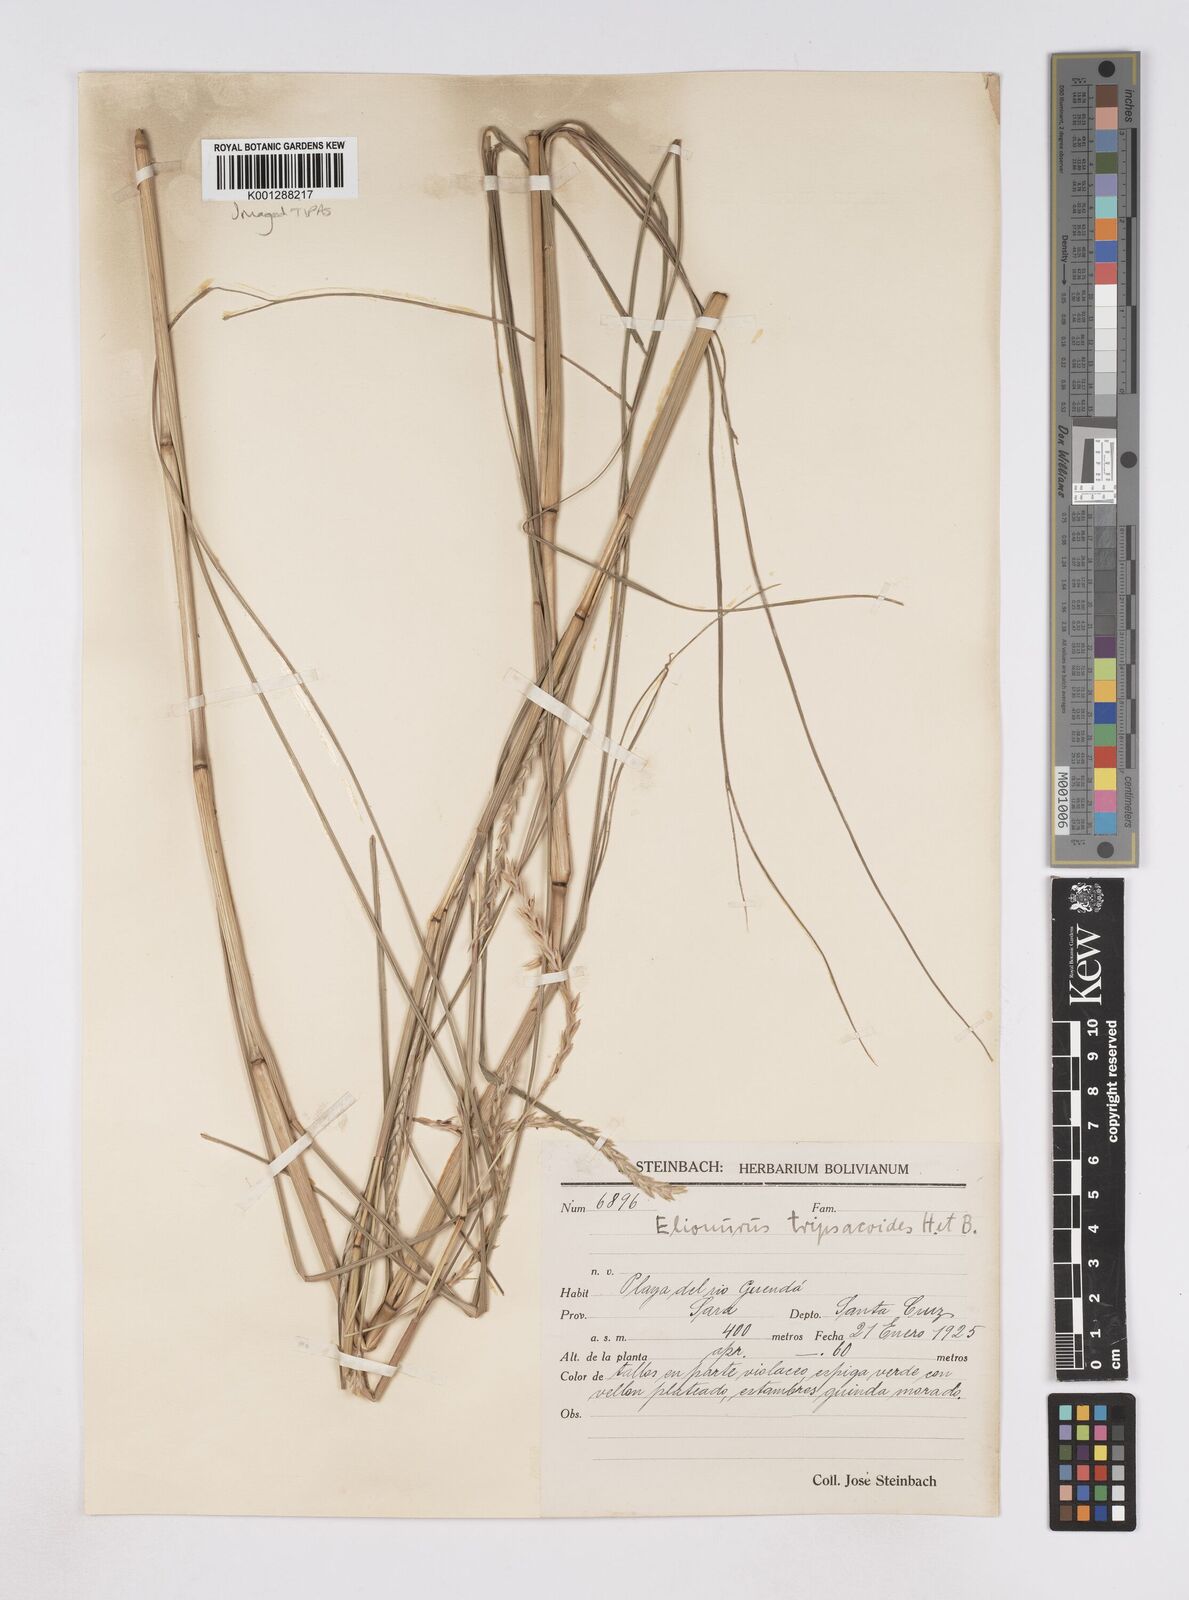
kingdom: Plantae
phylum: Tracheophyta
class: Liliopsida
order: Poales
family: Poaceae
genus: Elionurus
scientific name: Elionurus tripsacoides
